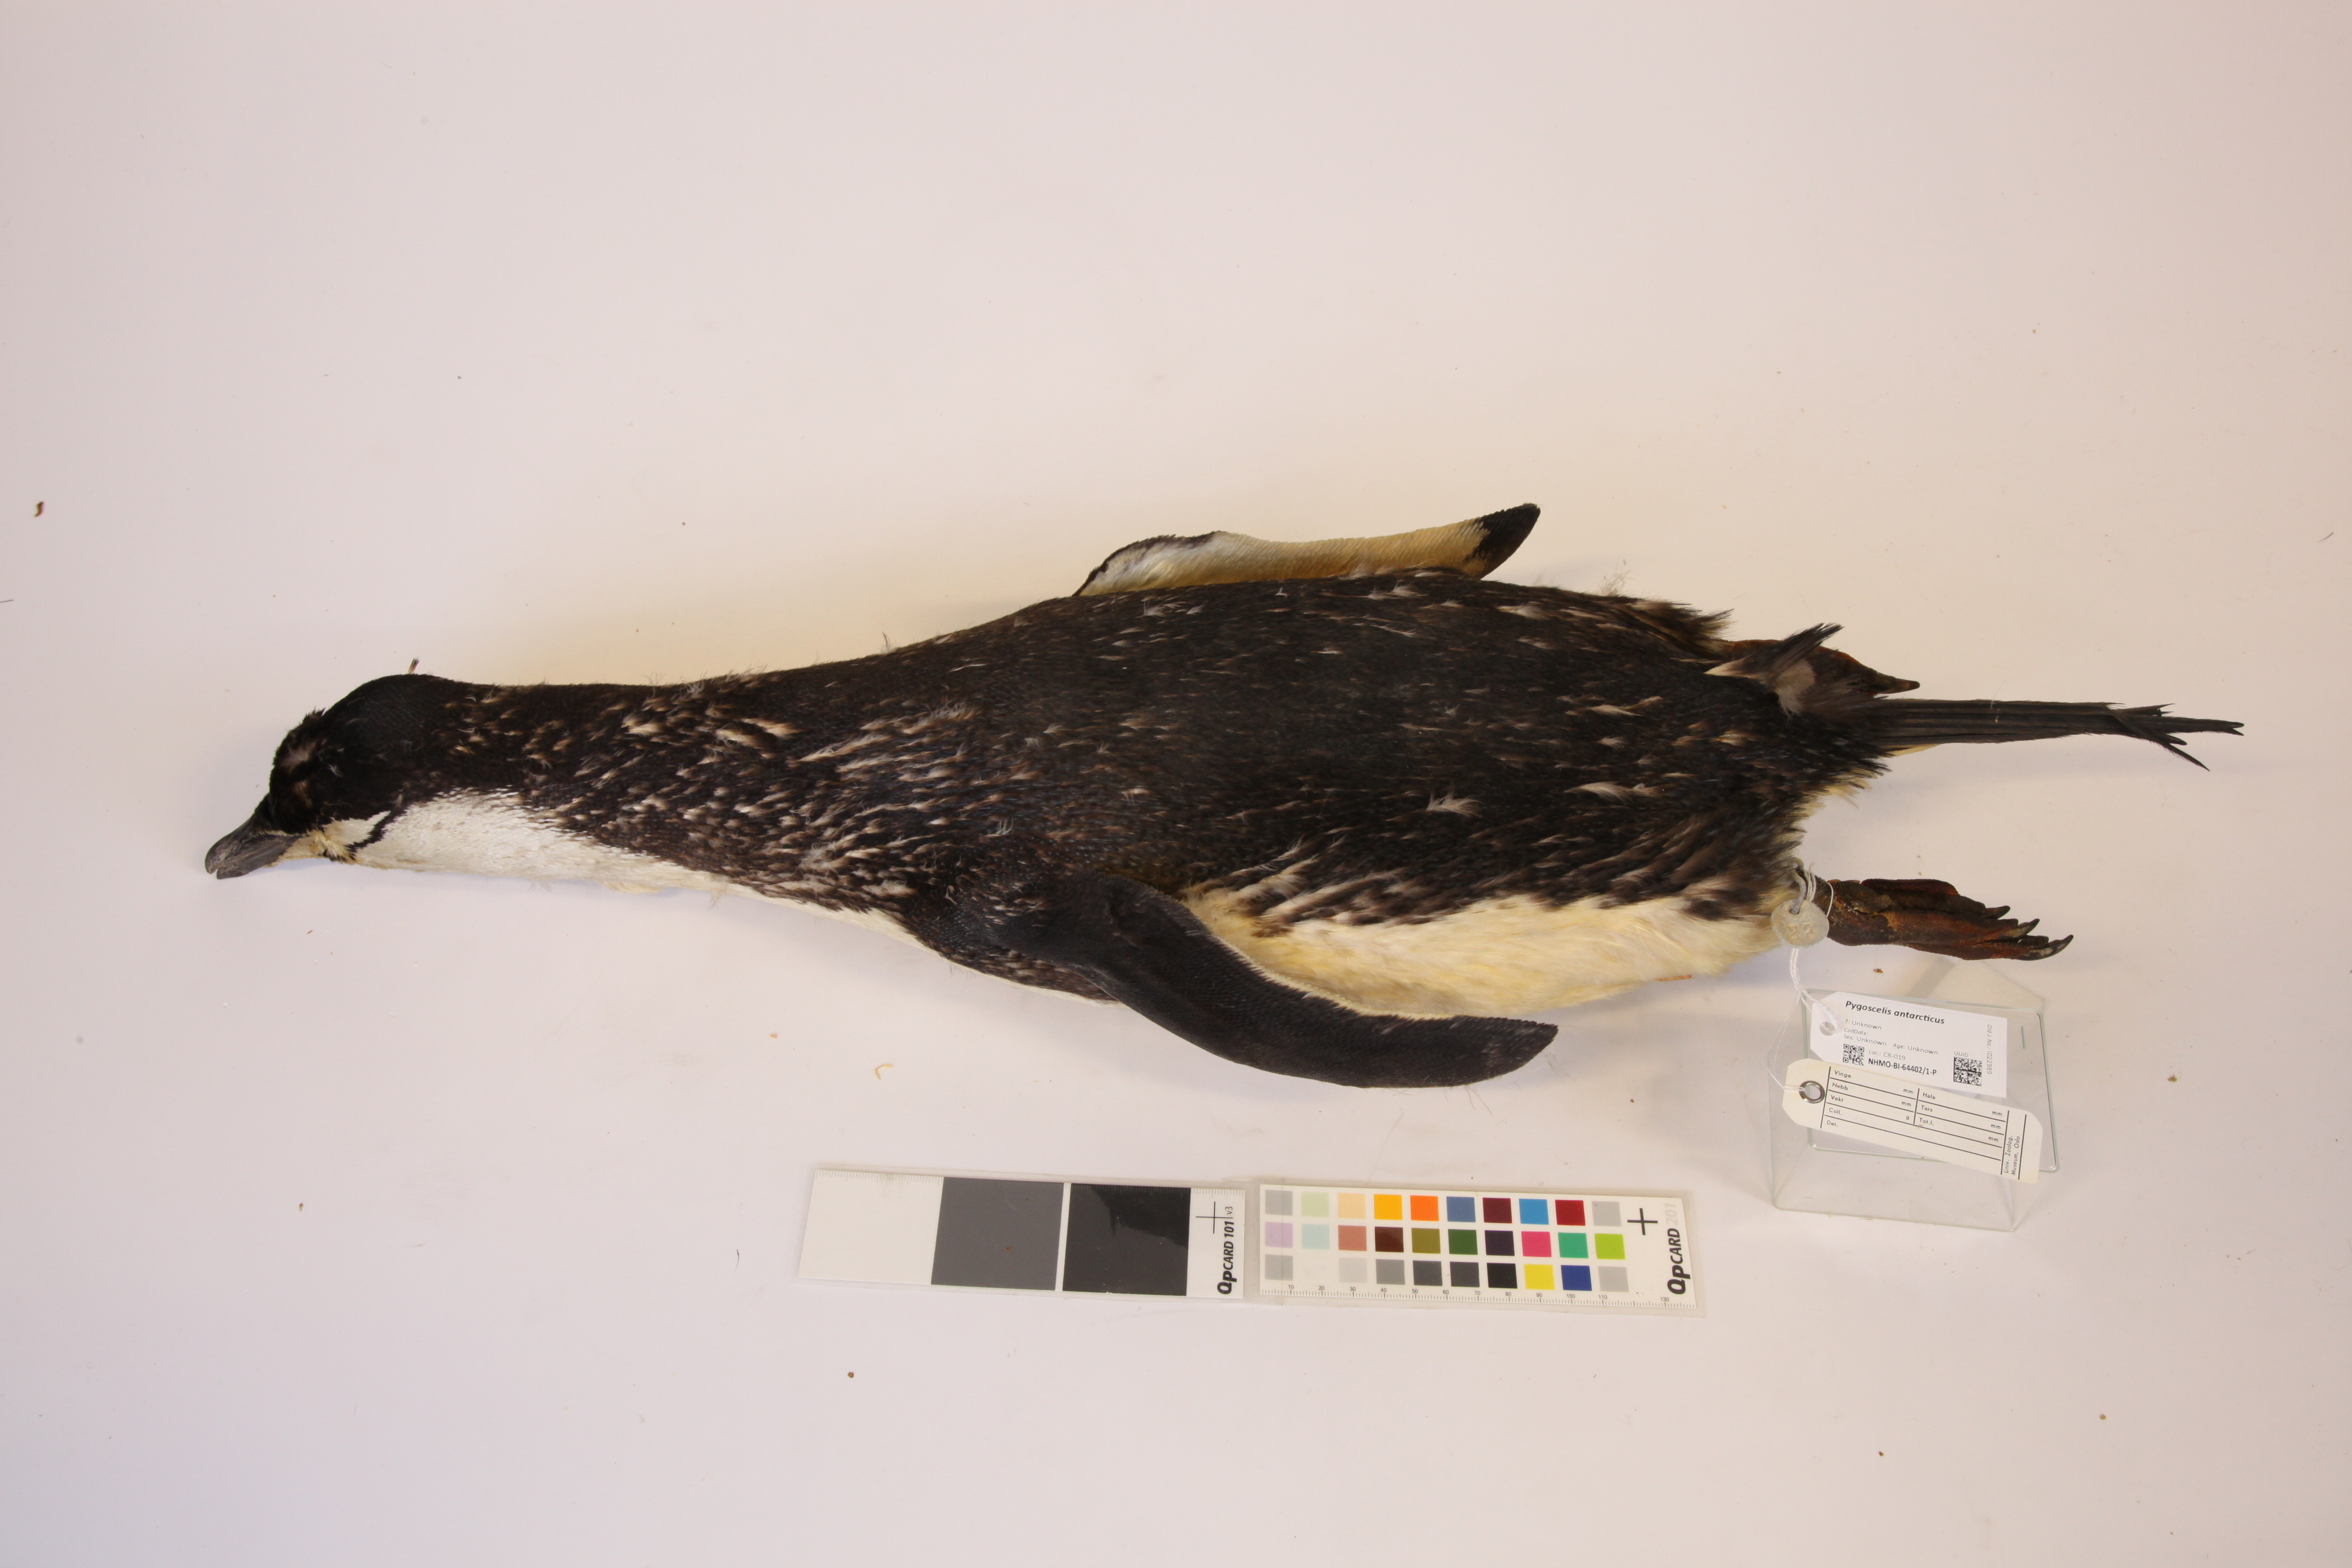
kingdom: Animalia
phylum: Chordata
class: Aves
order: Sphenisciformes
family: Spheniscidae
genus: Pygoscelis
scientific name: Pygoscelis antarcticus
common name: Chinstrap penguin
